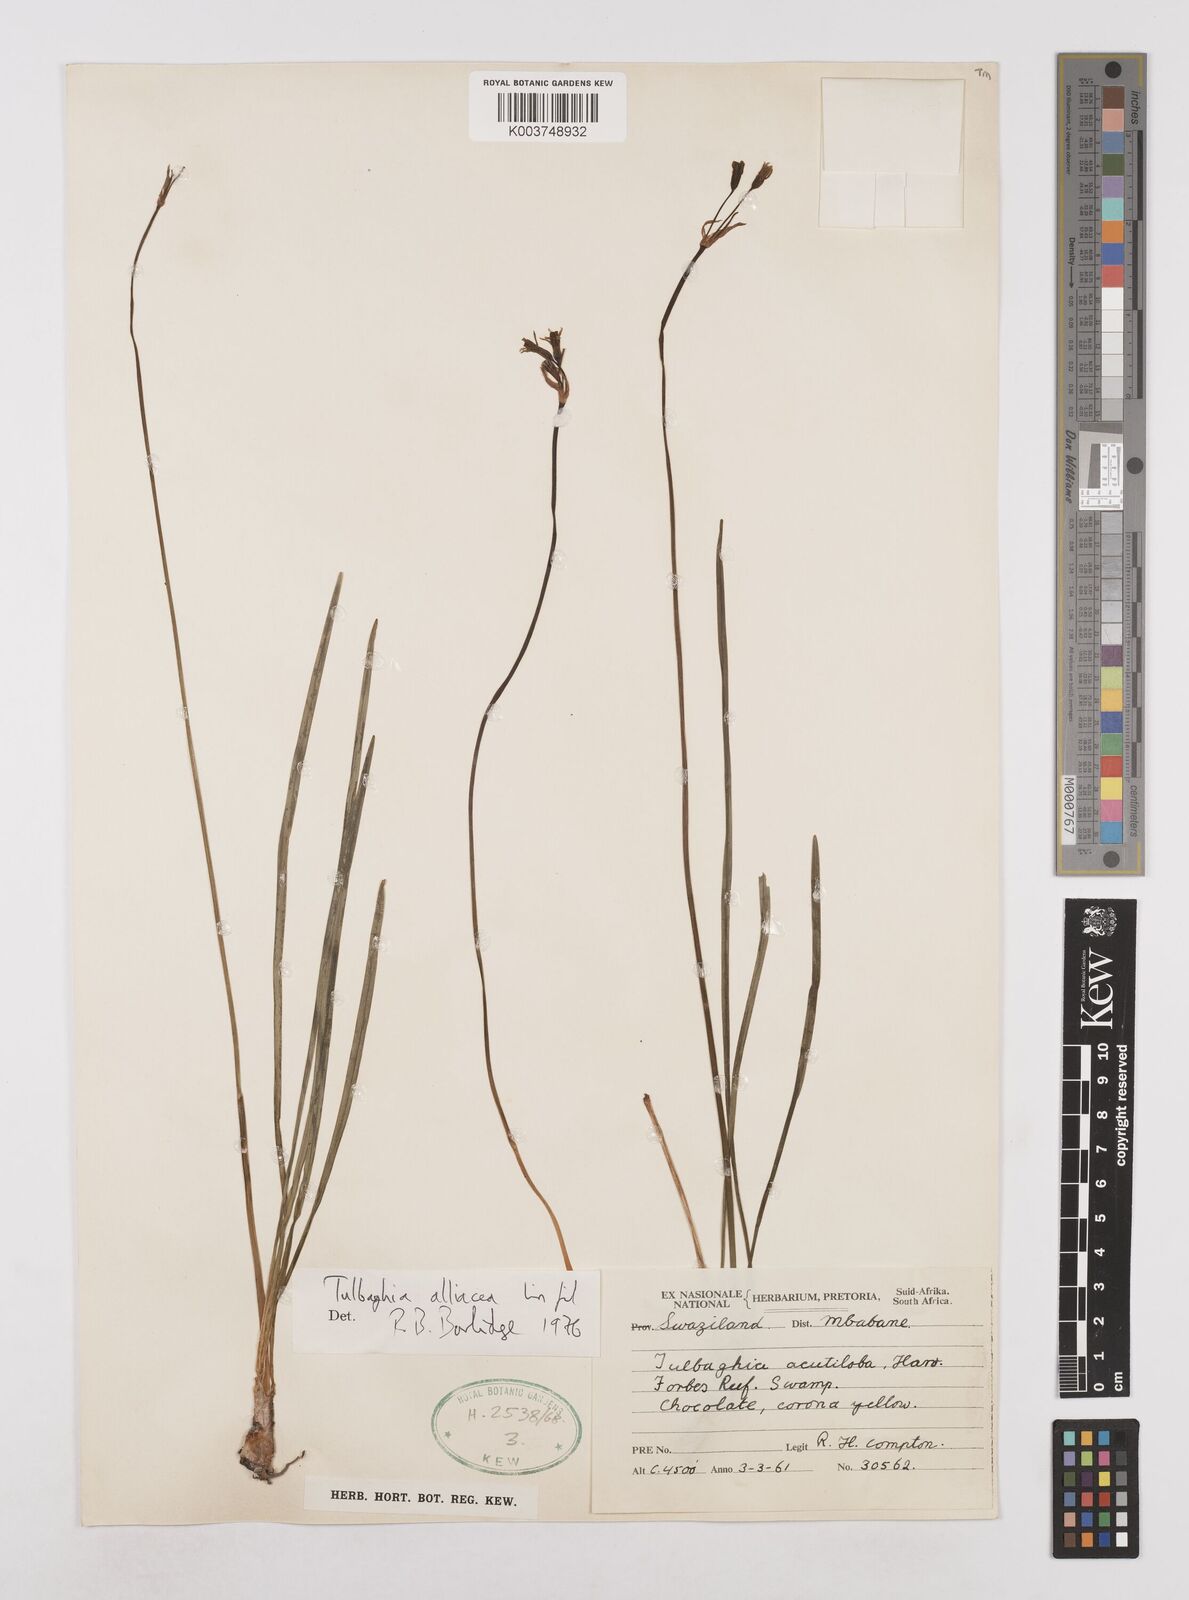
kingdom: Plantae
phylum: Tracheophyta
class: Liliopsida
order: Asparagales
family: Amaryllidaceae
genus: Tulbaghia
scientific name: Tulbaghia alliacea
